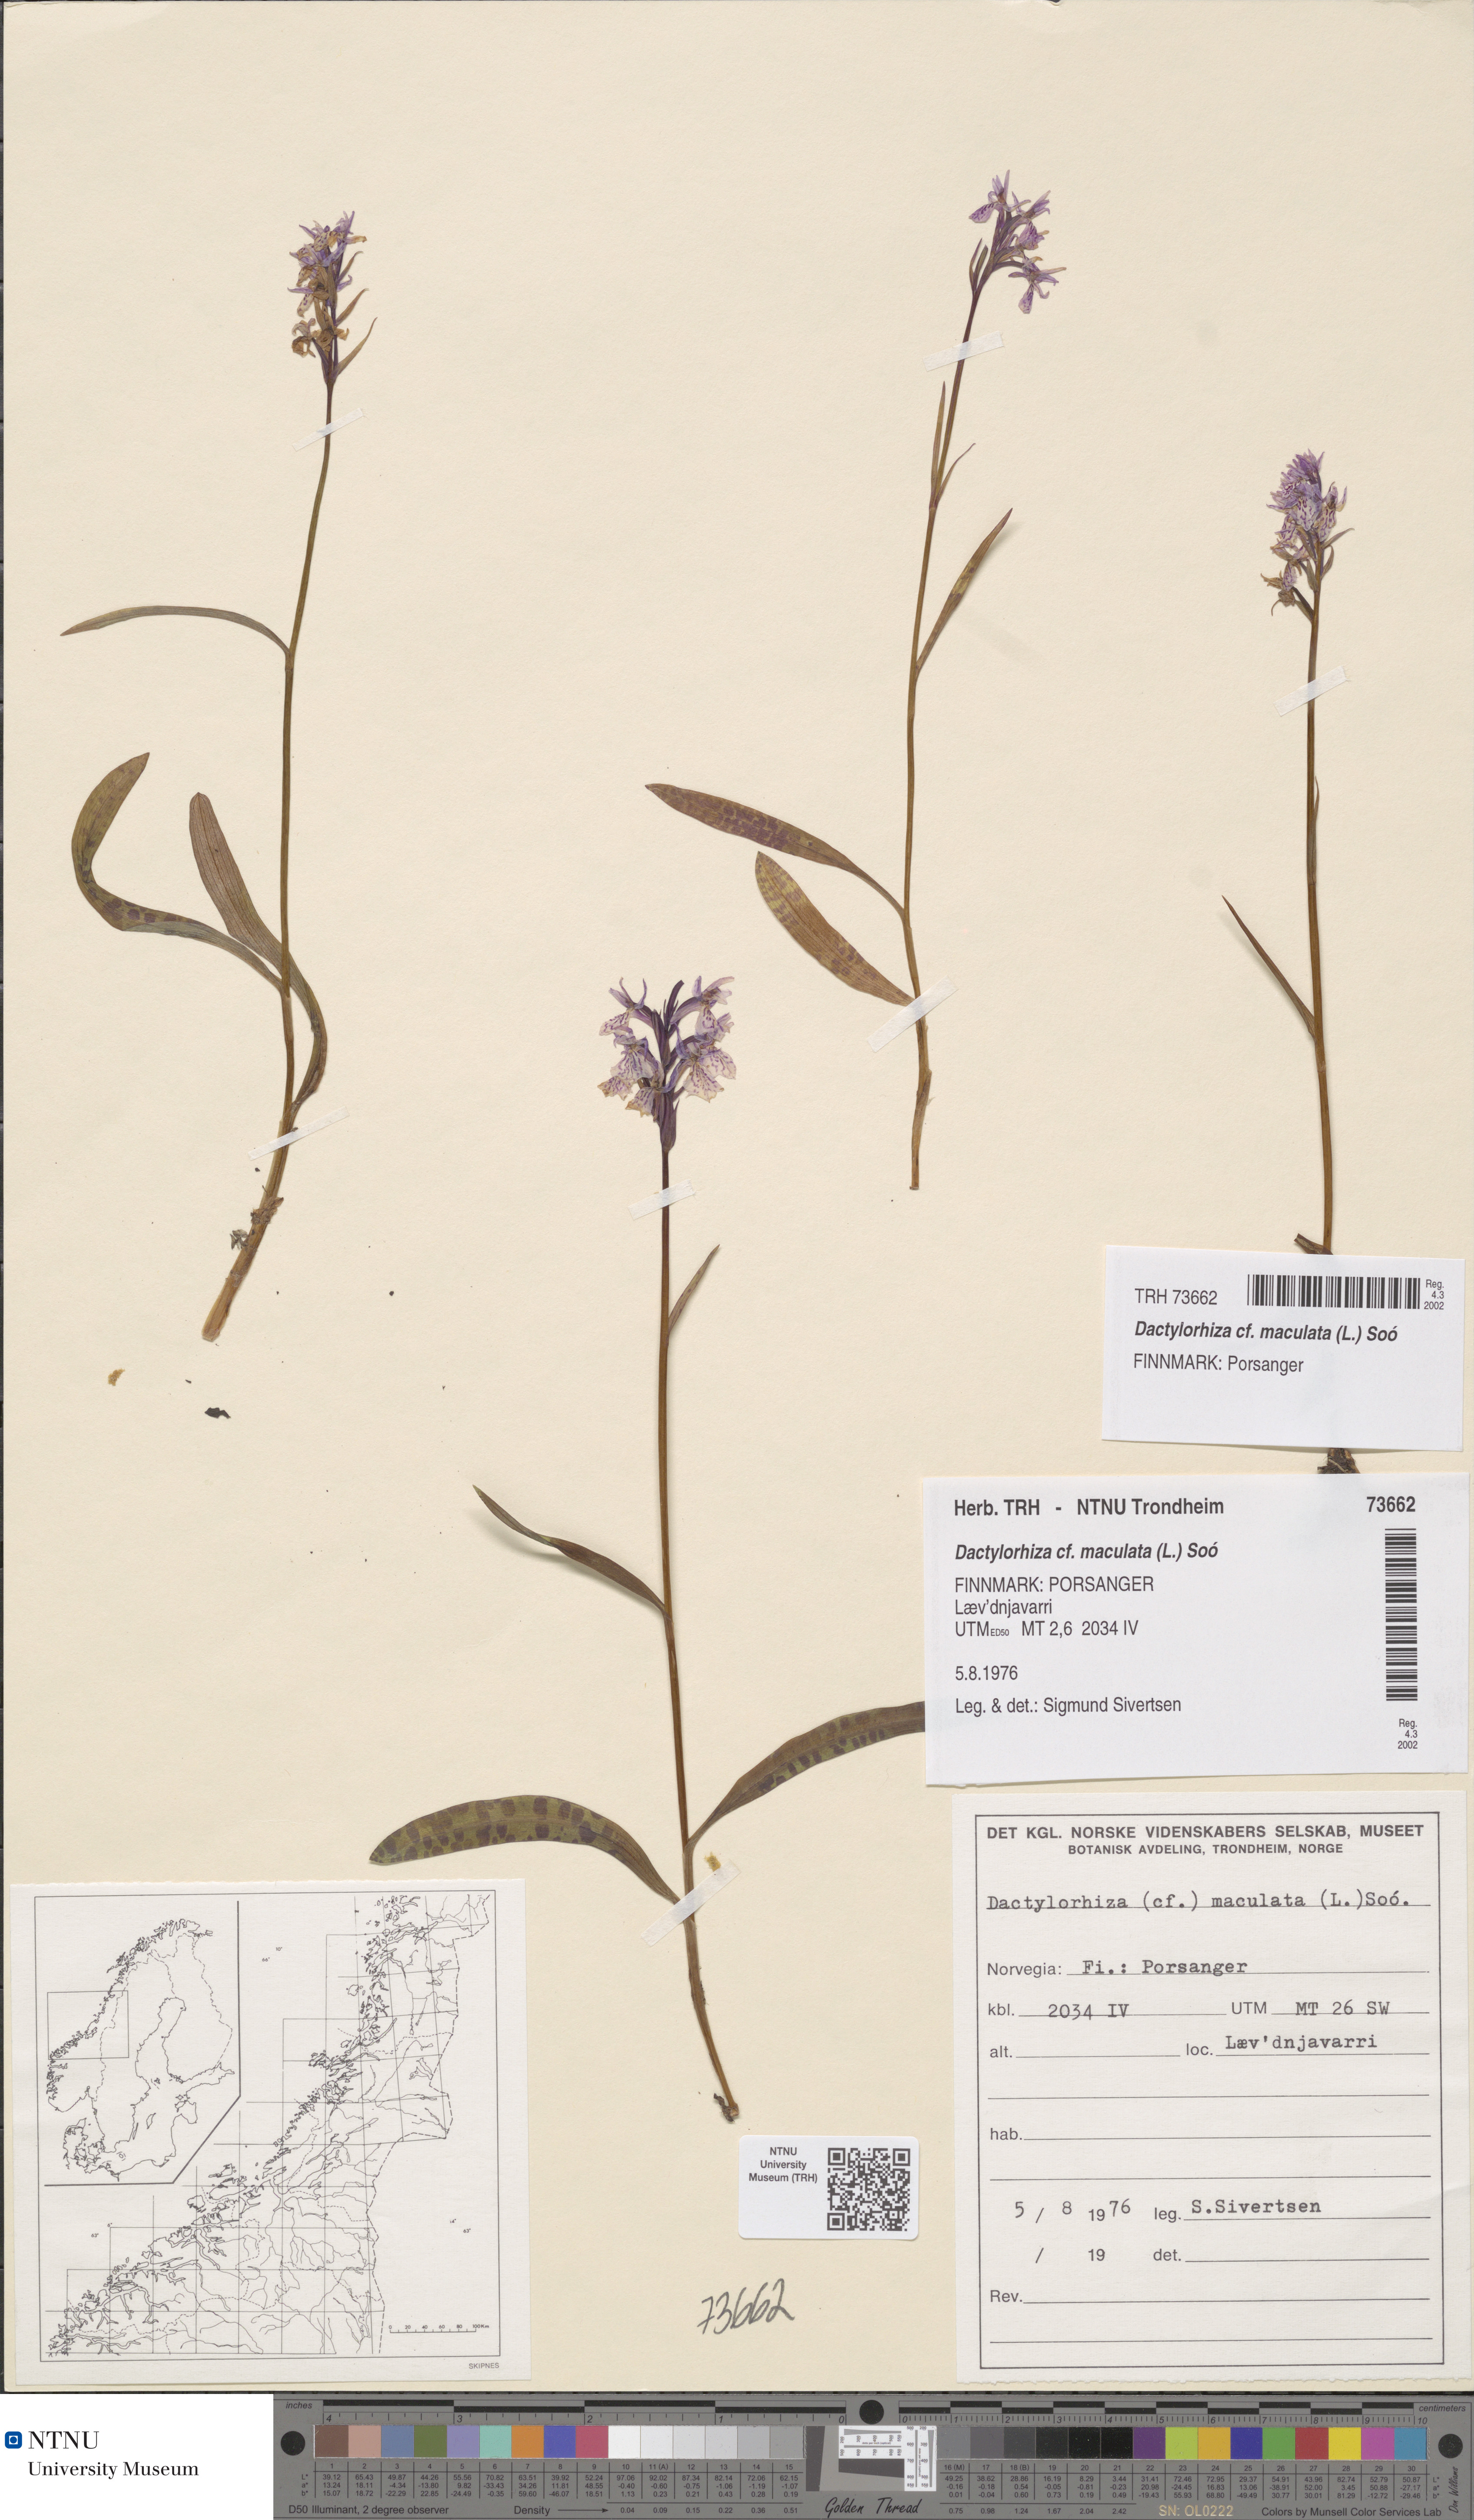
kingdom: Plantae
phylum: Tracheophyta
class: Liliopsida
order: Asparagales
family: Orchidaceae
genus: Dactylorhiza
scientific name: Dactylorhiza maculata
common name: Heath spotted-orchid
